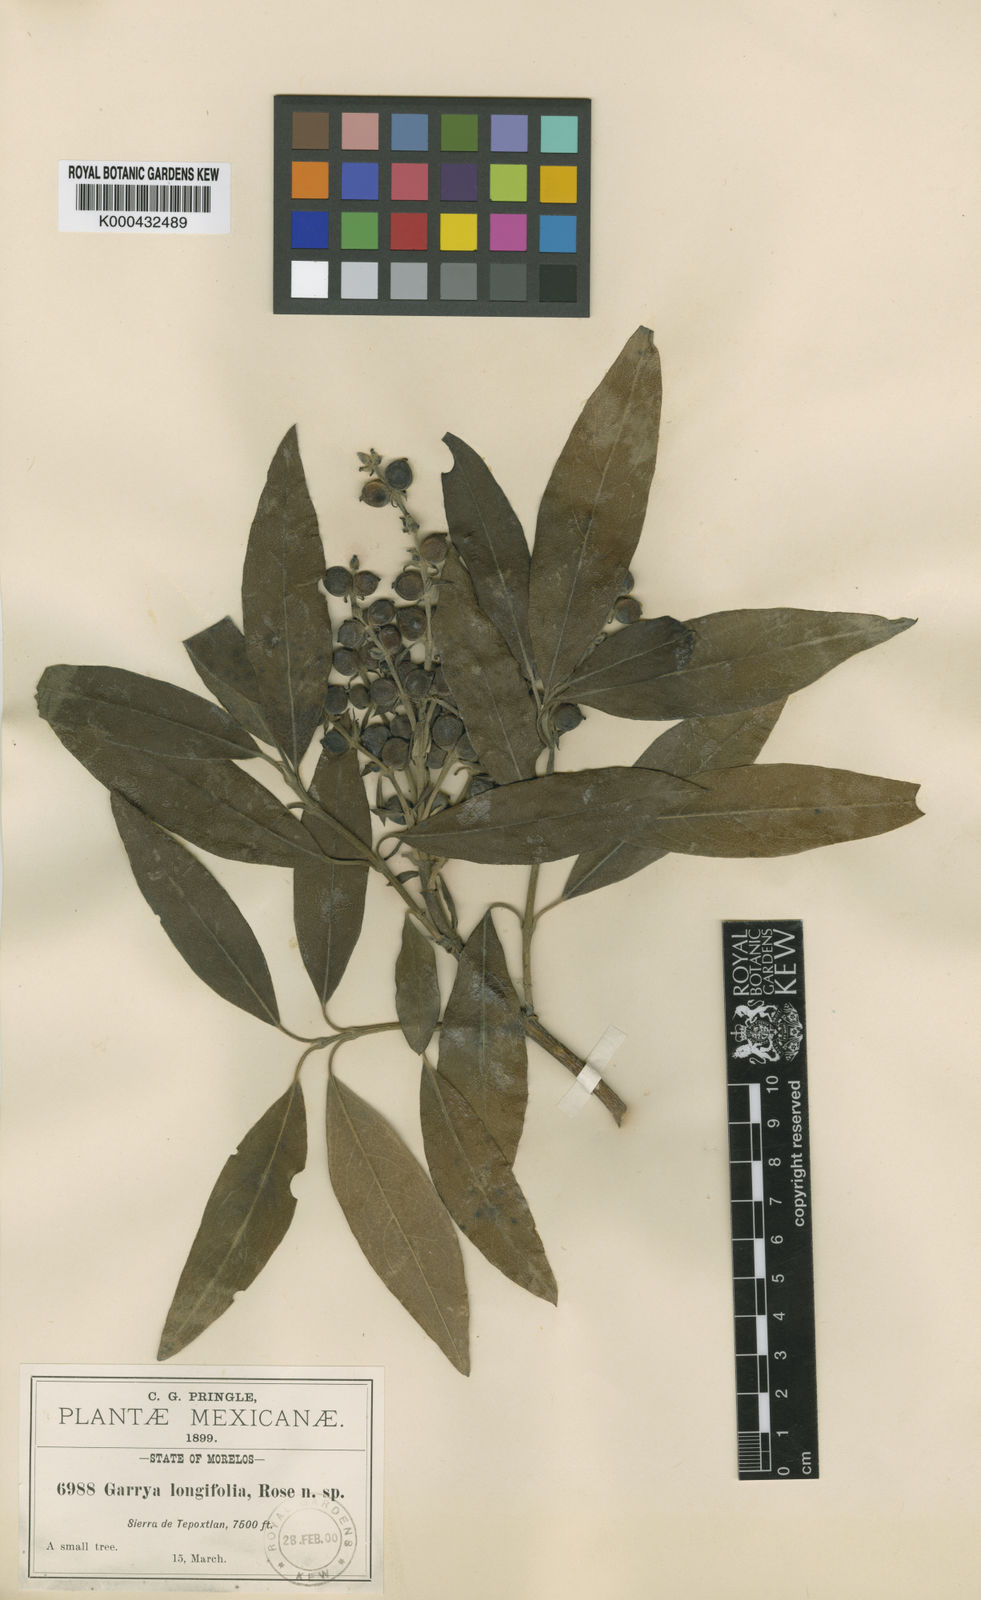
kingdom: Plantae
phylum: Tracheophyta
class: Magnoliopsida
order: Garryales
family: Garryaceae
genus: Garrya
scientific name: Garrya longifolia
